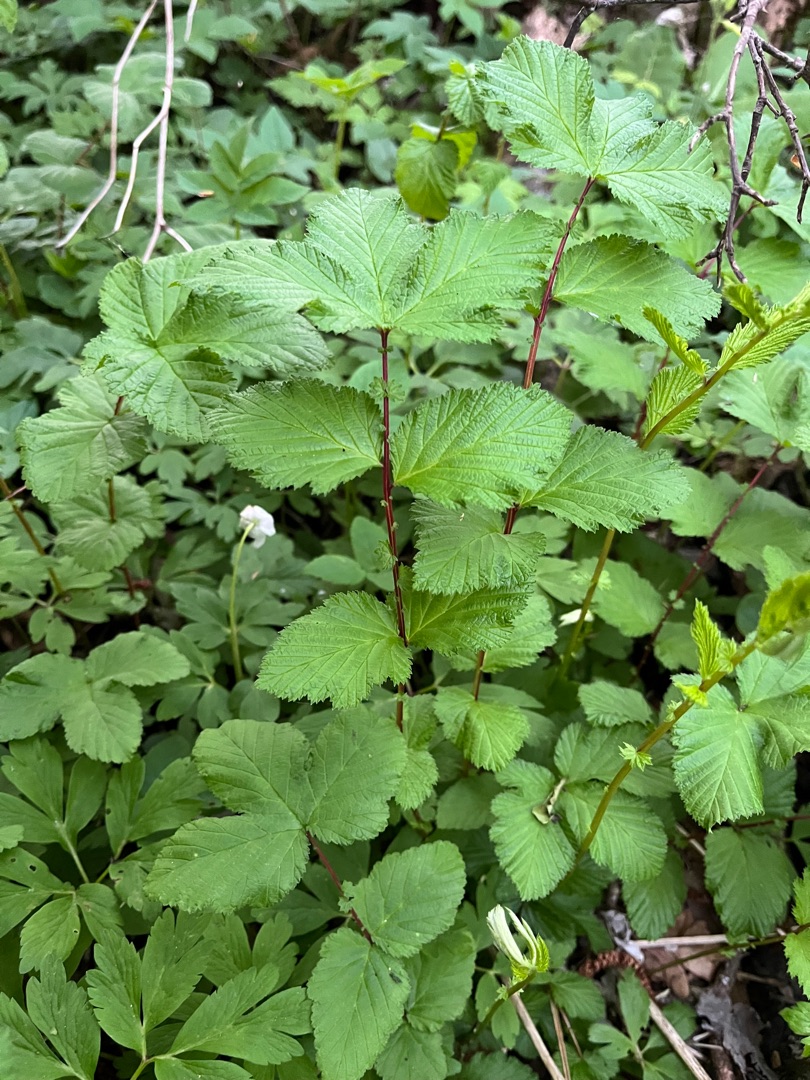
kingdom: Plantae
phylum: Tracheophyta
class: Magnoliopsida
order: Rosales
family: Rosaceae
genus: Filipendula
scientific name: Filipendula ulmaria
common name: Almindelig mjødurt
